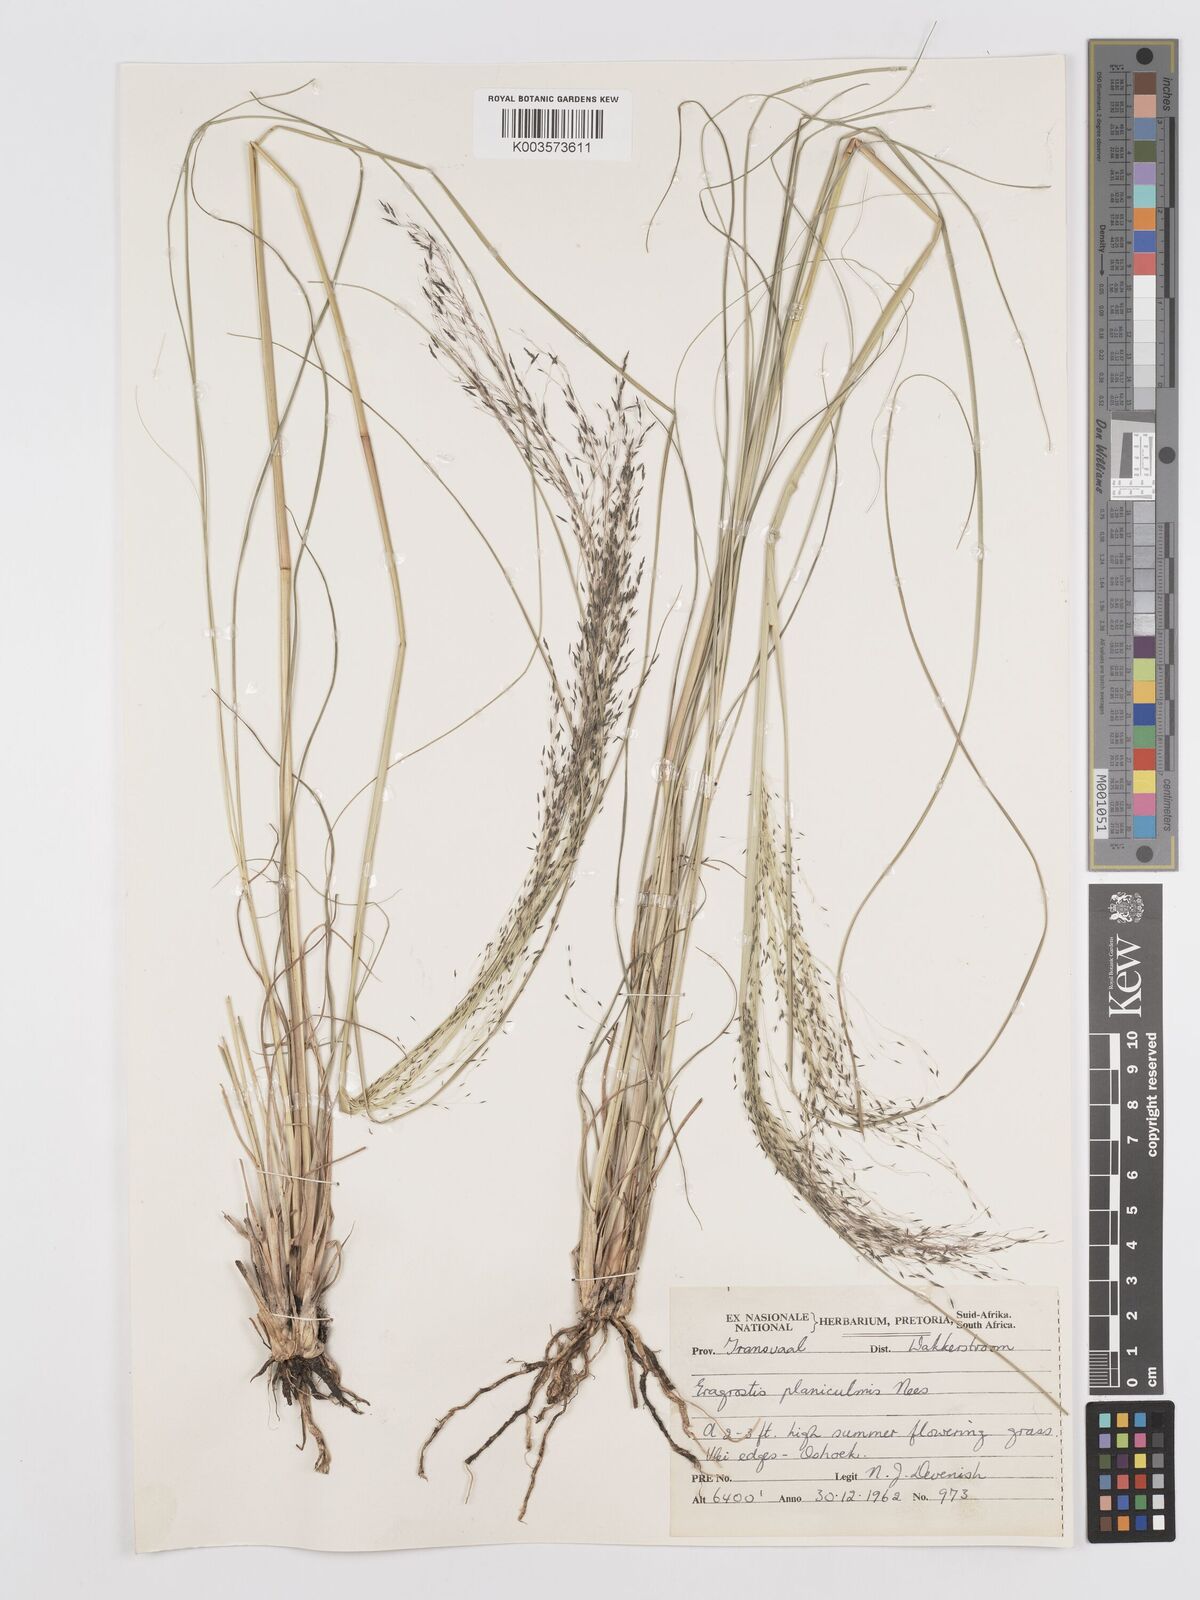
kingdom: Plantae
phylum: Tracheophyta
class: Liliopsida
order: Poales
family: Poaceae
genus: Eragrostis
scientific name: Eragrostis planiculmis
